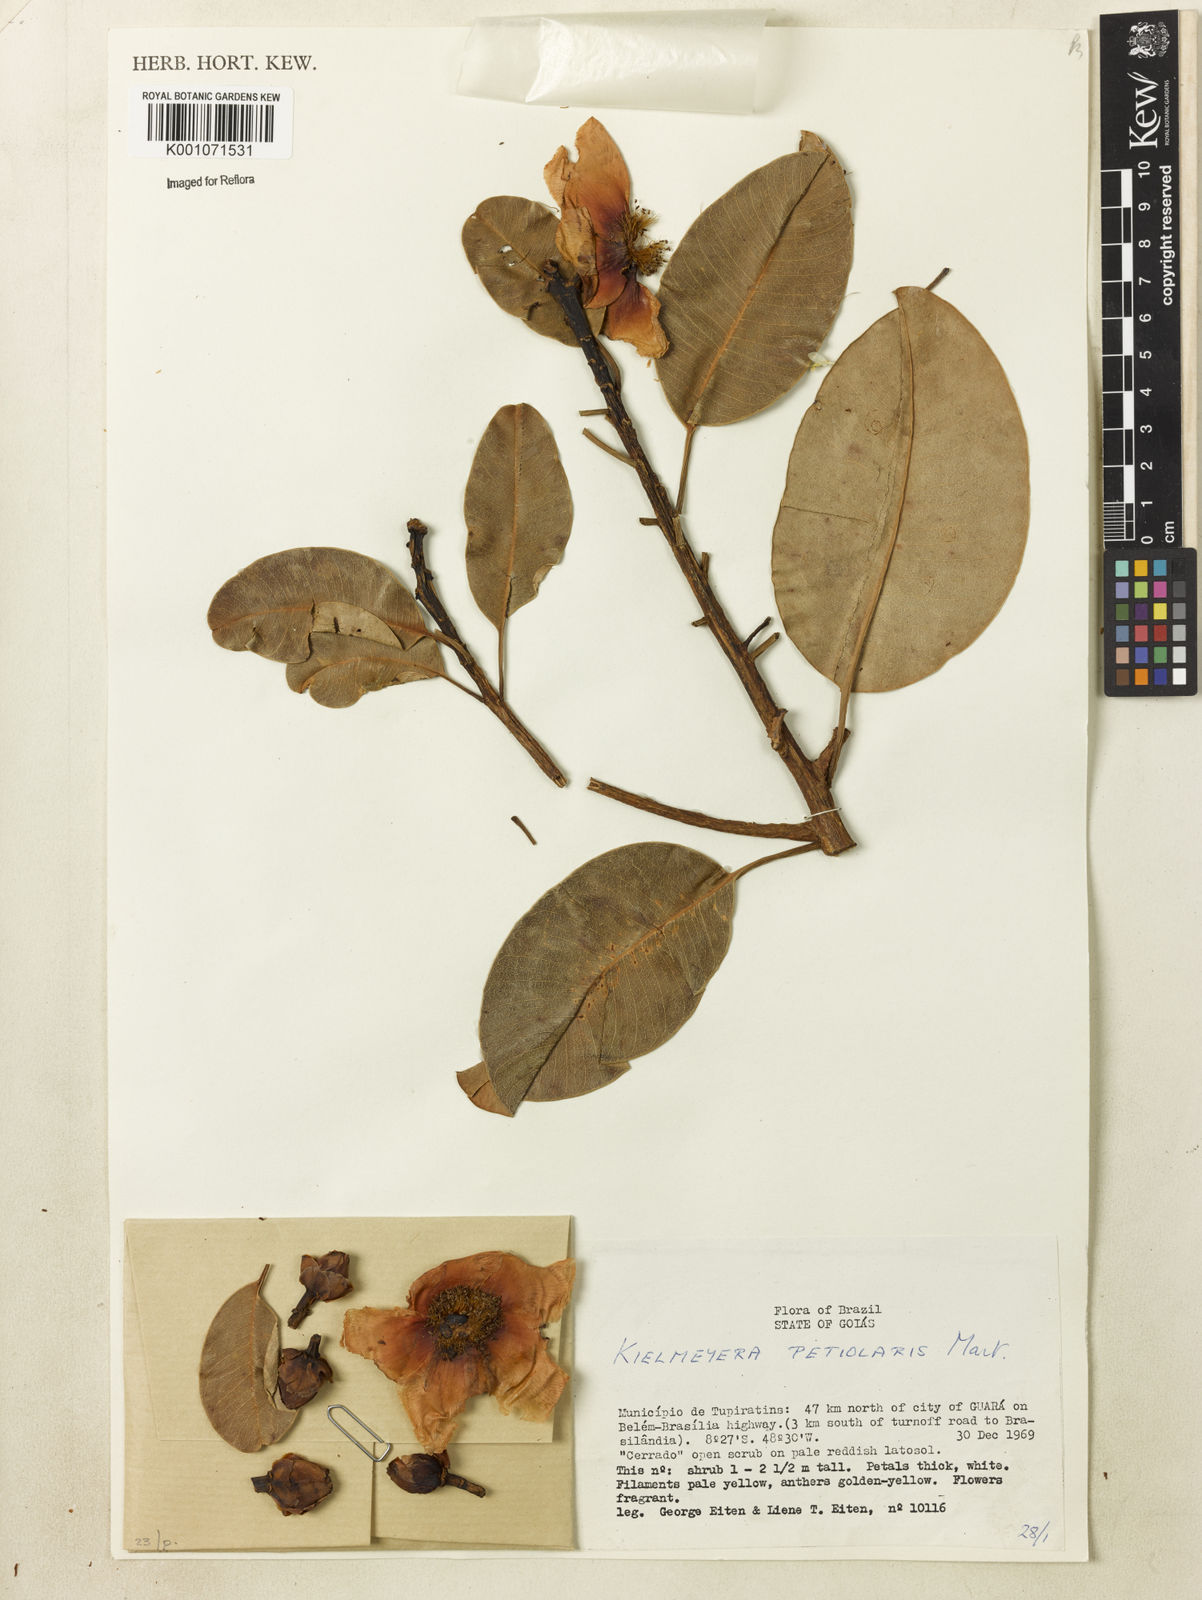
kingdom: Plantae
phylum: Tracheophyta
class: Magnoliopsida
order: Malpighiales
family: Calophyllaceae
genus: Kielmeyera
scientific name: Kielmeyera petiolaris
